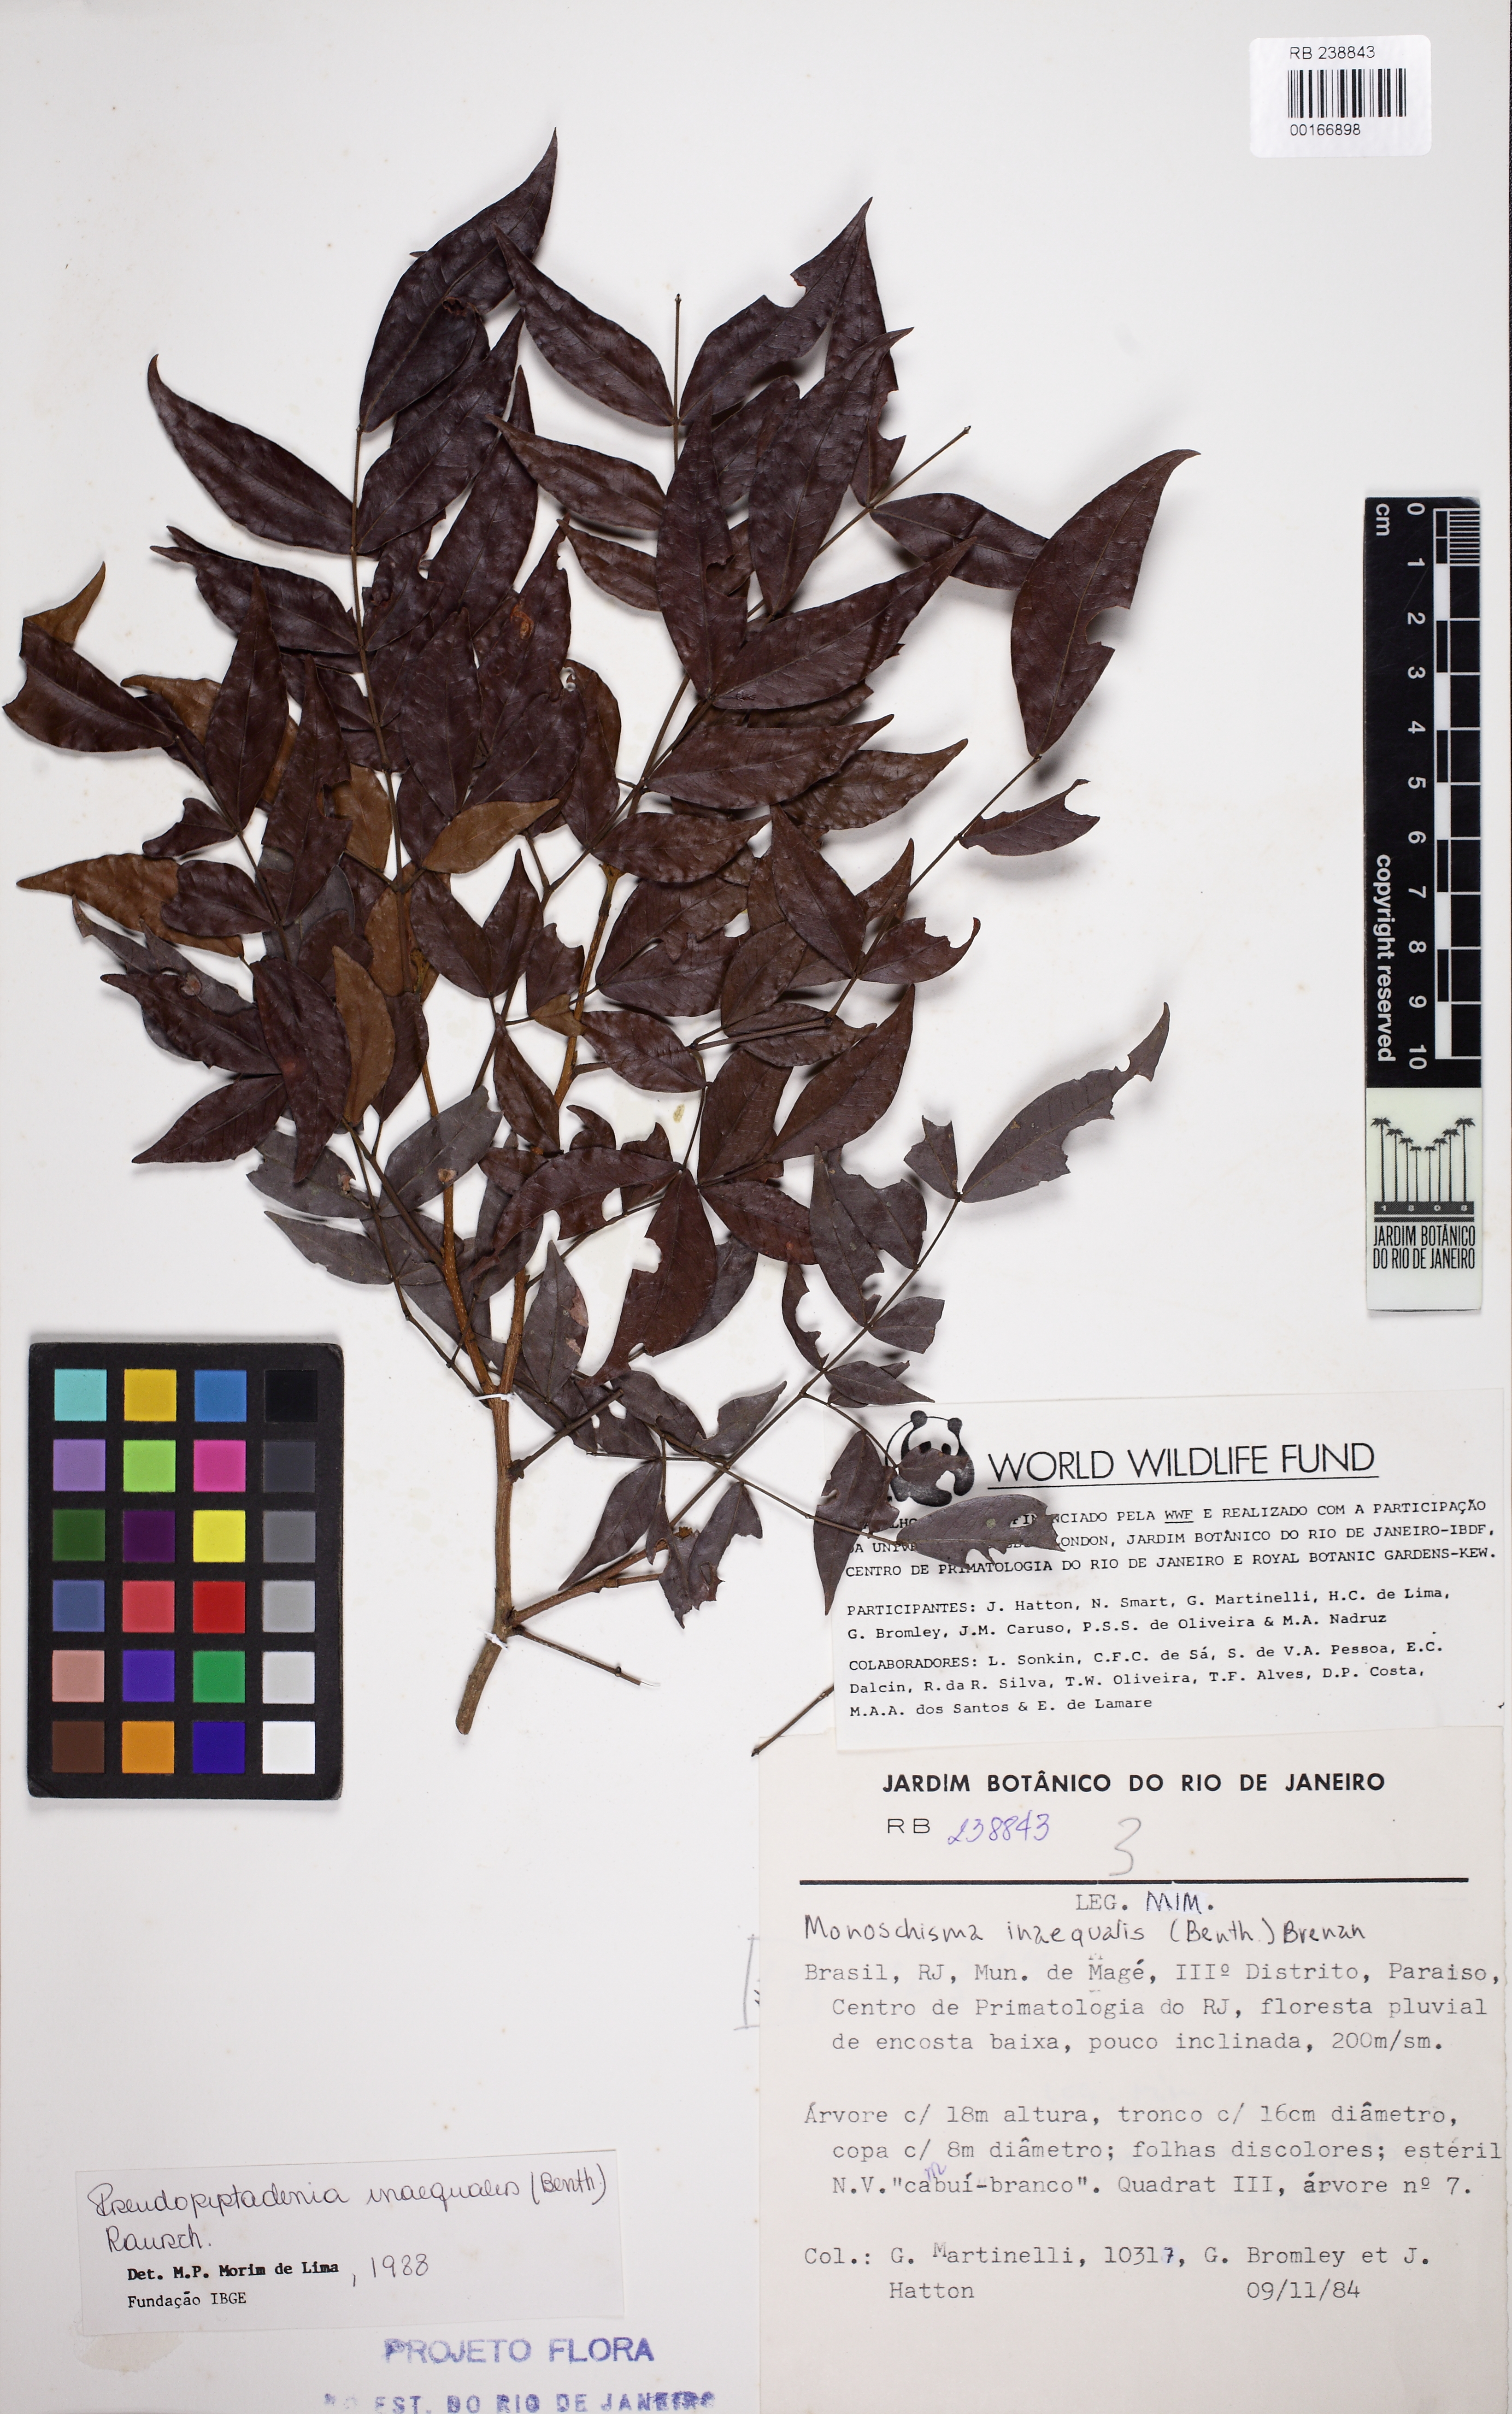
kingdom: Plantae
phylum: Tracheophyta
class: Magnoliopsida
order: Fabales
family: Fabaceae
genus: Pseudopiptadenia
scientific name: Pseudopiptadenia inaequalis
